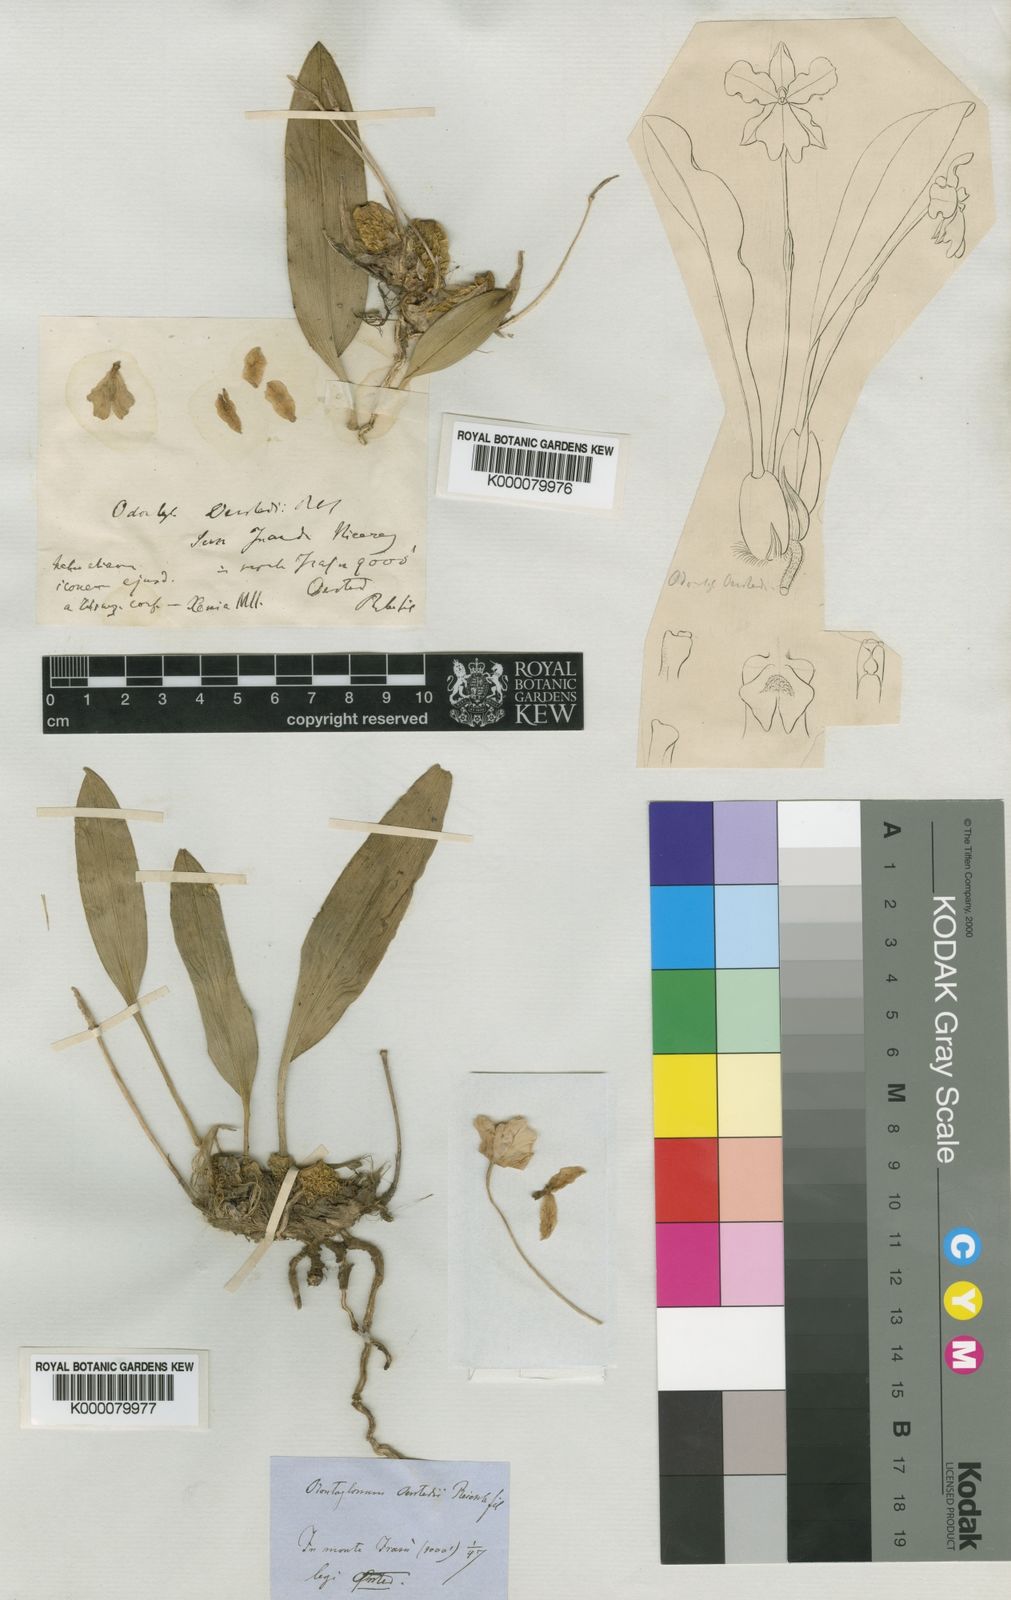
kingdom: Plantae
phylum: Tracheophyta
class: Liliopsida
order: Asparagales
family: Orchidaceae
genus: Rossioglossum
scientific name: Rossioglossum oerstedii
